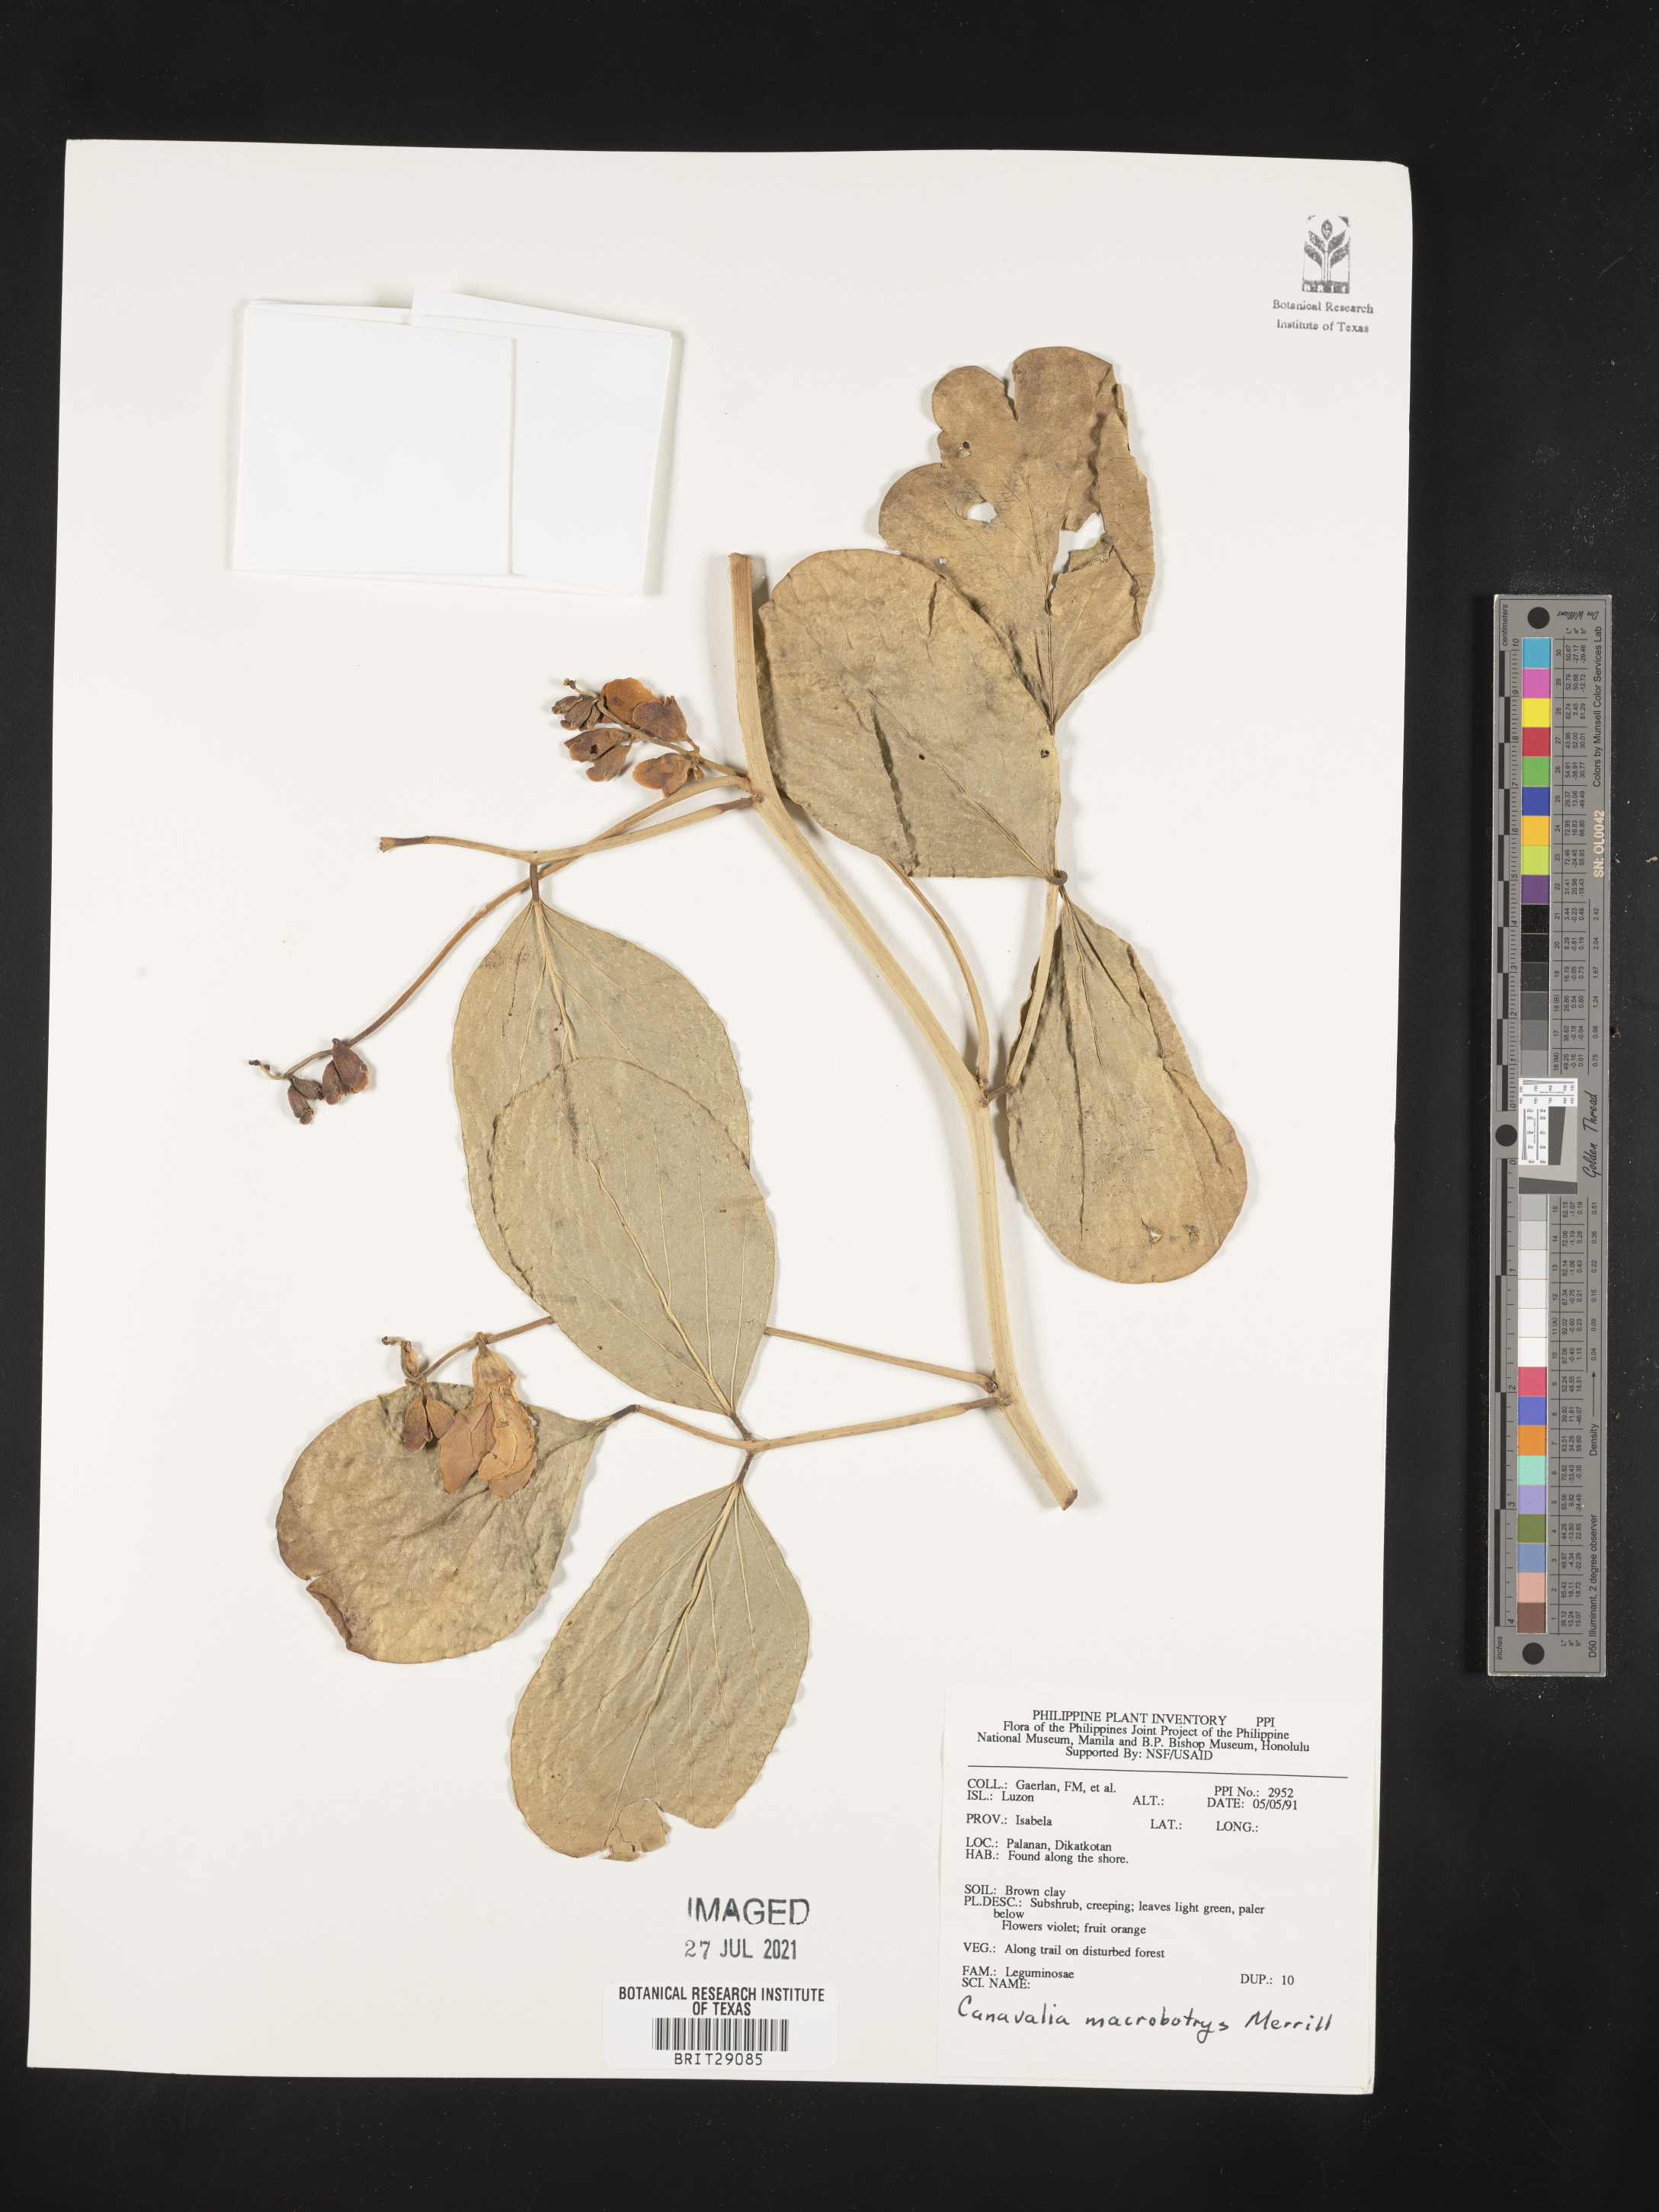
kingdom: Plantae
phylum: Tracheophyta
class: Magnoliopsida
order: Fabales
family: Fabaceae
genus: Canavalia
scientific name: Canavalia macrobotrys
